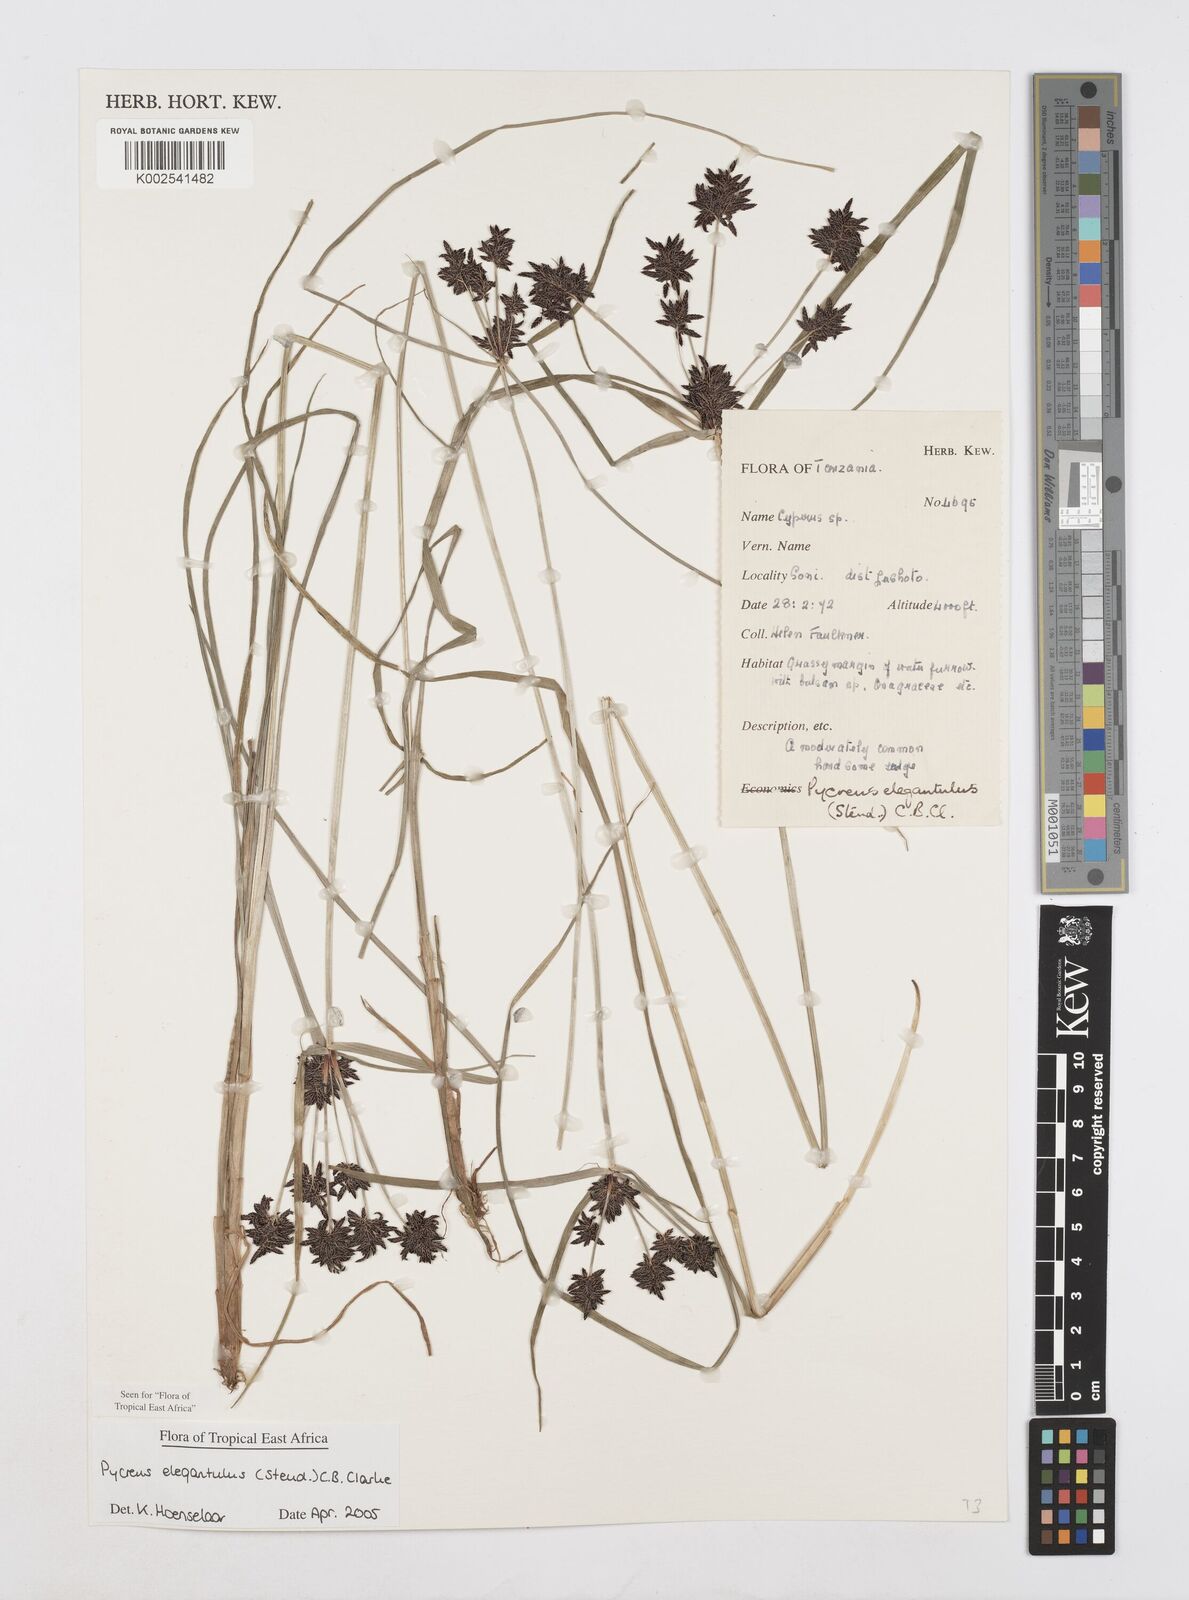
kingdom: Plantae
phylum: Tracheophyta
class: Liliopsida
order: Poales
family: Cyperaceae
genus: Cyperus
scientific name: Cyperus elegantulus
